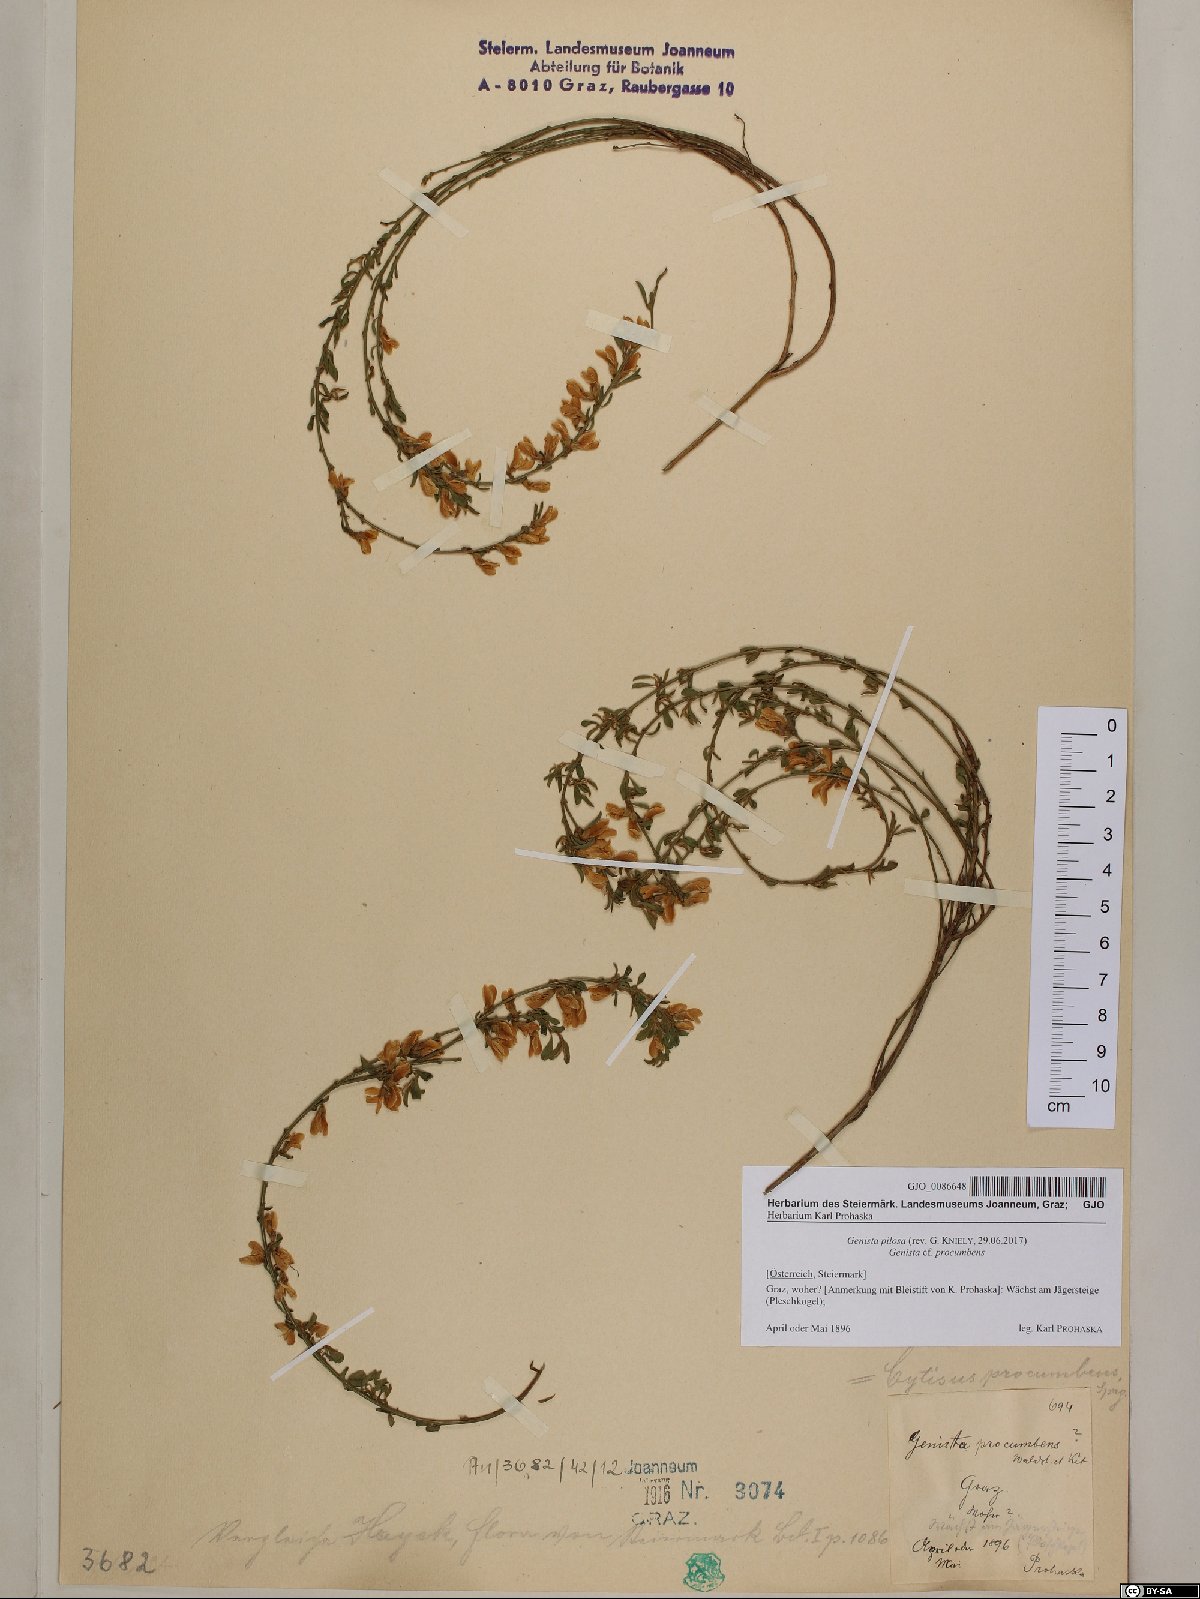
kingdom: Plantae
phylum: Tracheophyta
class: Magnoliopsida
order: Fabales
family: Fabaceae
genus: Genista
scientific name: Genista pilosa
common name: Hairy greenweed
